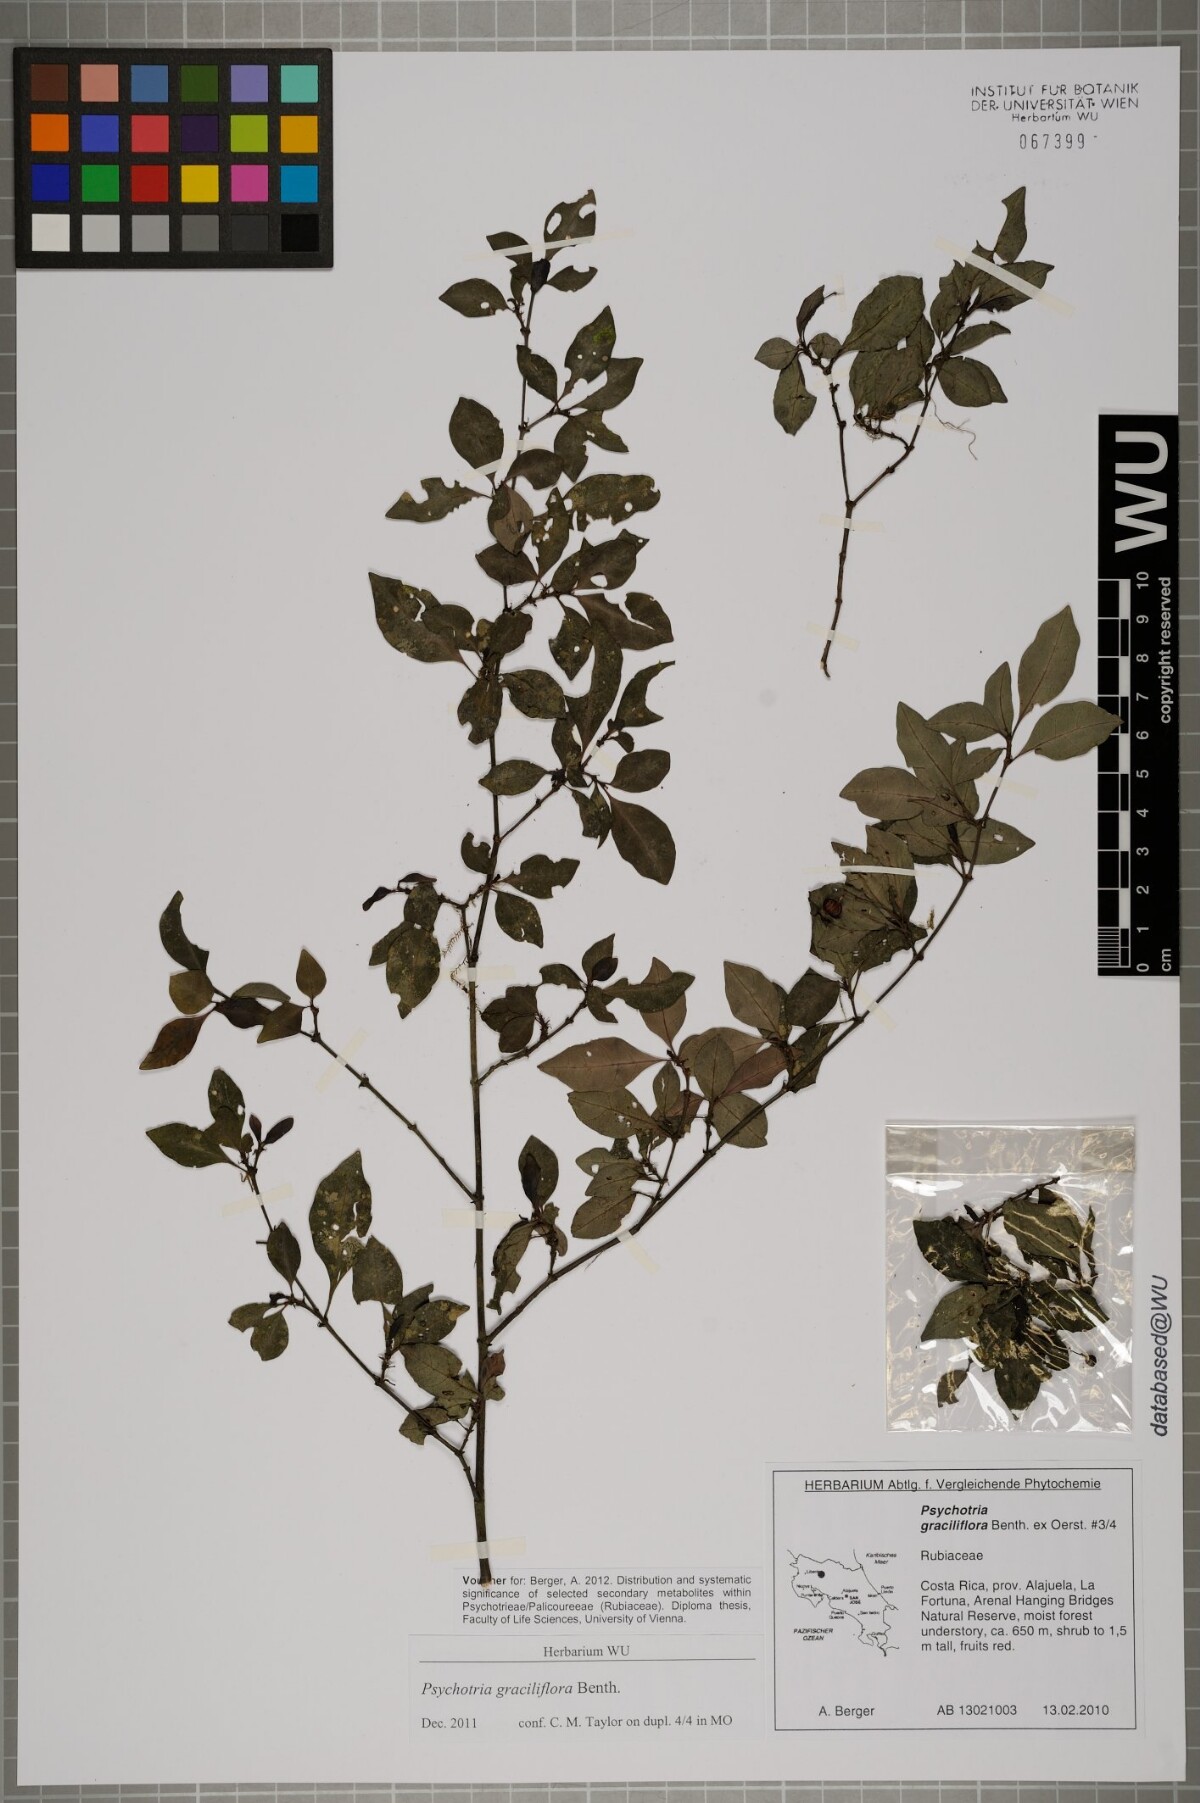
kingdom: Plantae
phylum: Tracheophyta
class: Magnoliopsida
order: Gentianales
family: Rubiaceae
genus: Psychotria
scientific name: Psychotria biaristata
